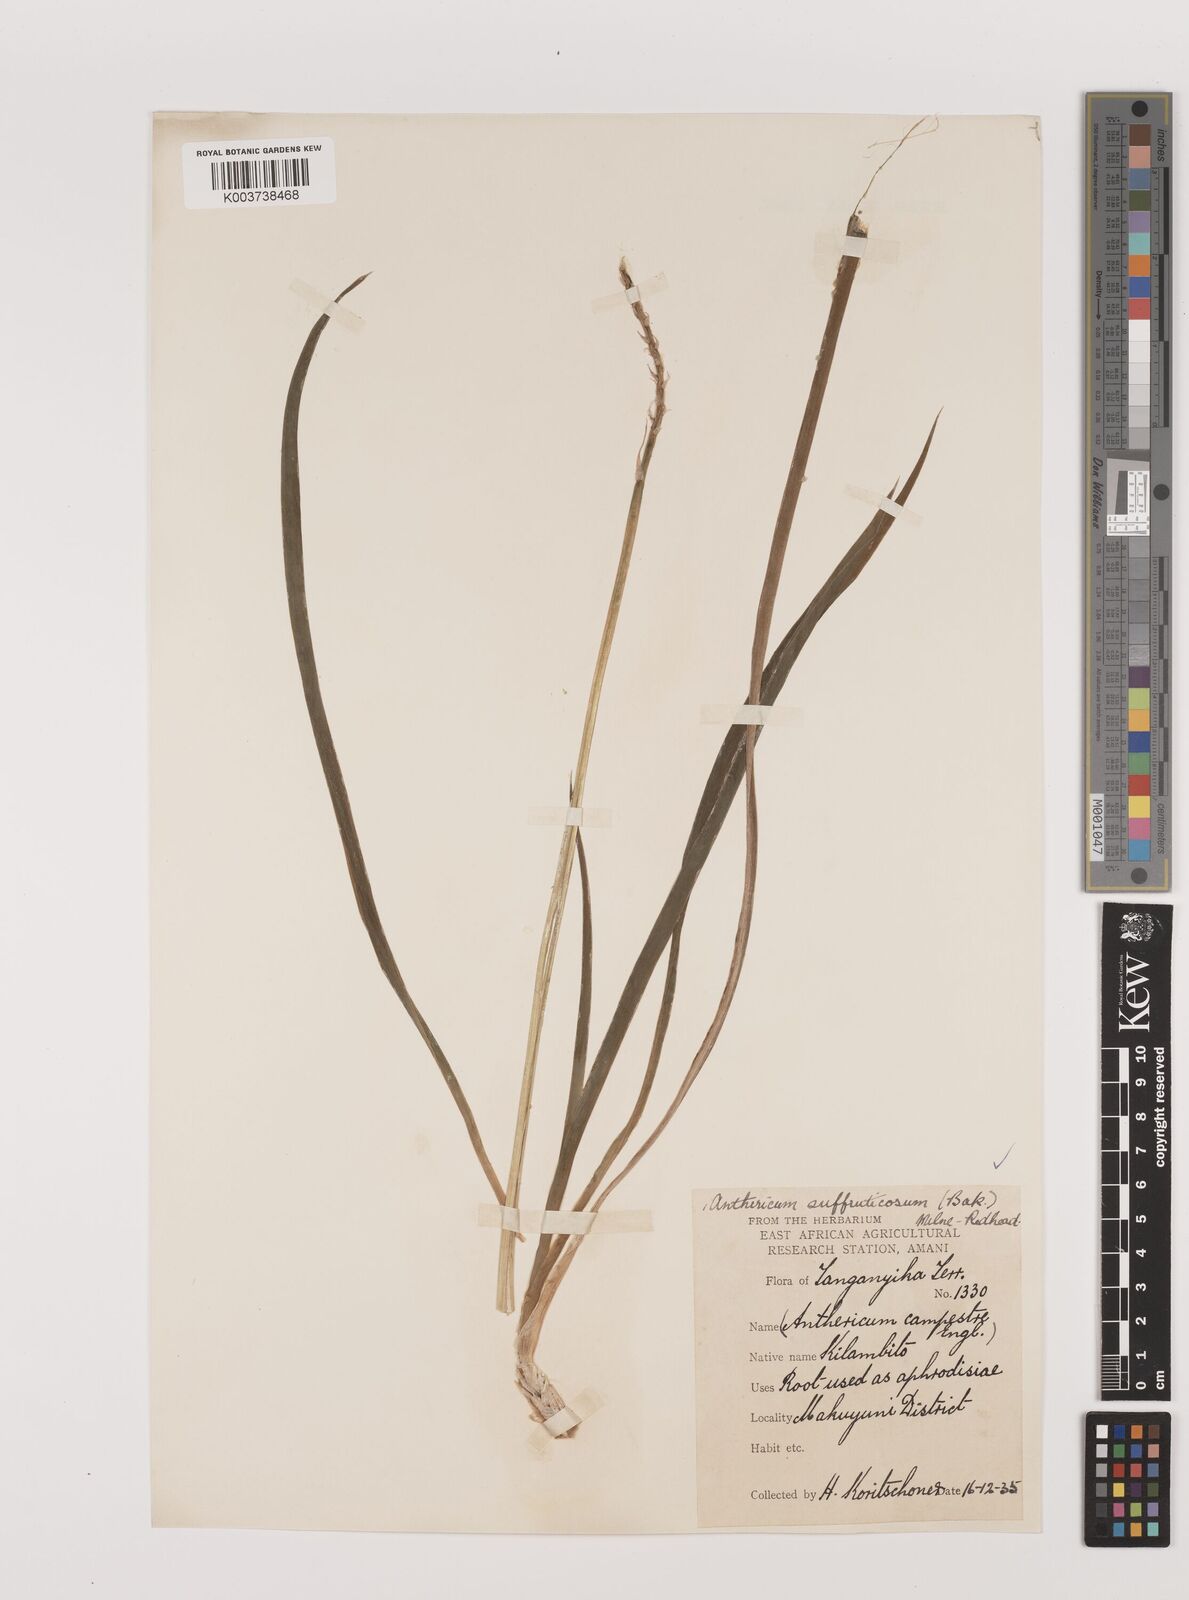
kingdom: Plantae
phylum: Tracheophyta
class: Liliopsida
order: Asparagales
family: Asparagaceae
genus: Chlorophytum
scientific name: Chlorophytum suffruticosum
